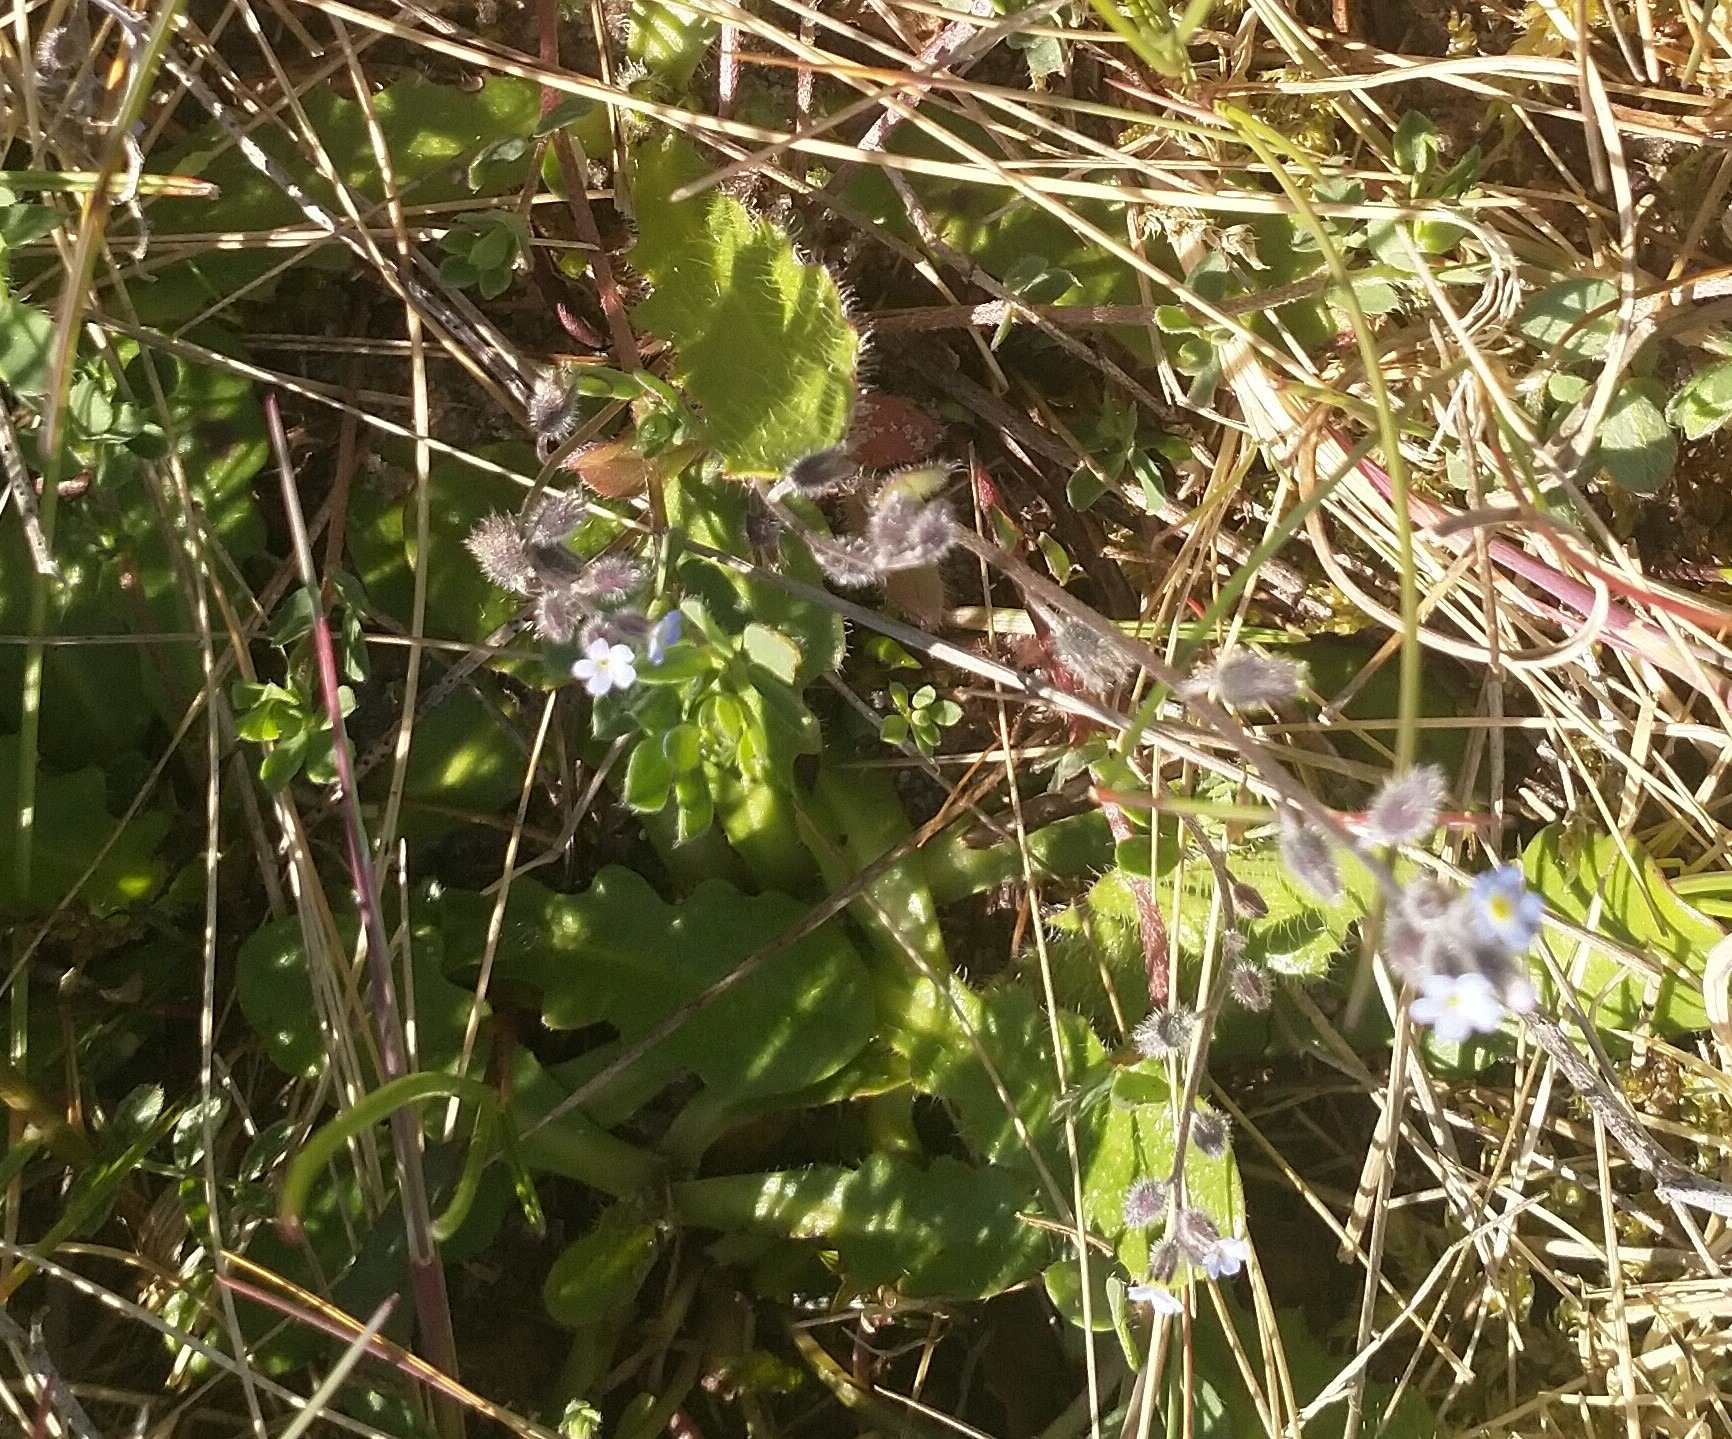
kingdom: Plantae
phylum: Tracheophyta
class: Magnoliopsida
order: Boraginales
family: Boraginaceae
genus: Myosotis
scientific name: Myosotis ramosissima
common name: Bakke-forglemmigej
